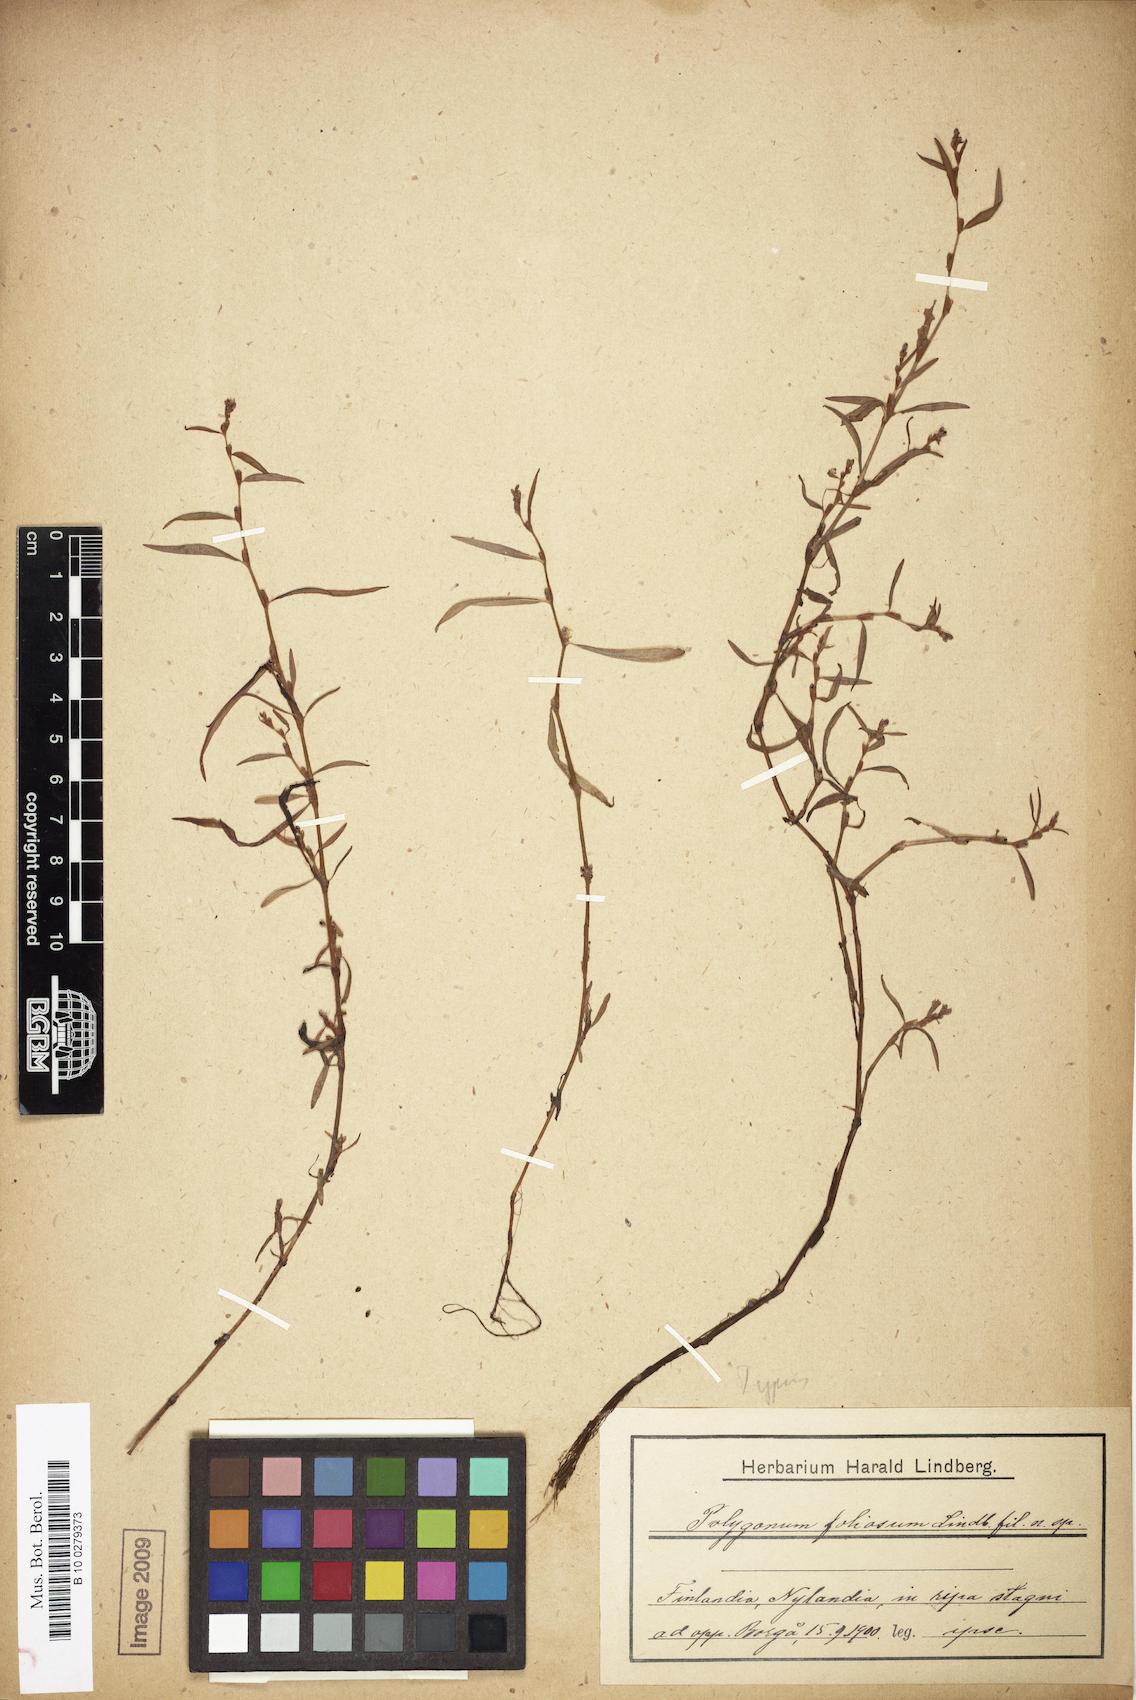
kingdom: Plantae
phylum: Tracheophyta
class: Magnoliopsida
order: Caryophyllales
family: Polygonaceae
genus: Persicaria
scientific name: Persicaria foliosa
